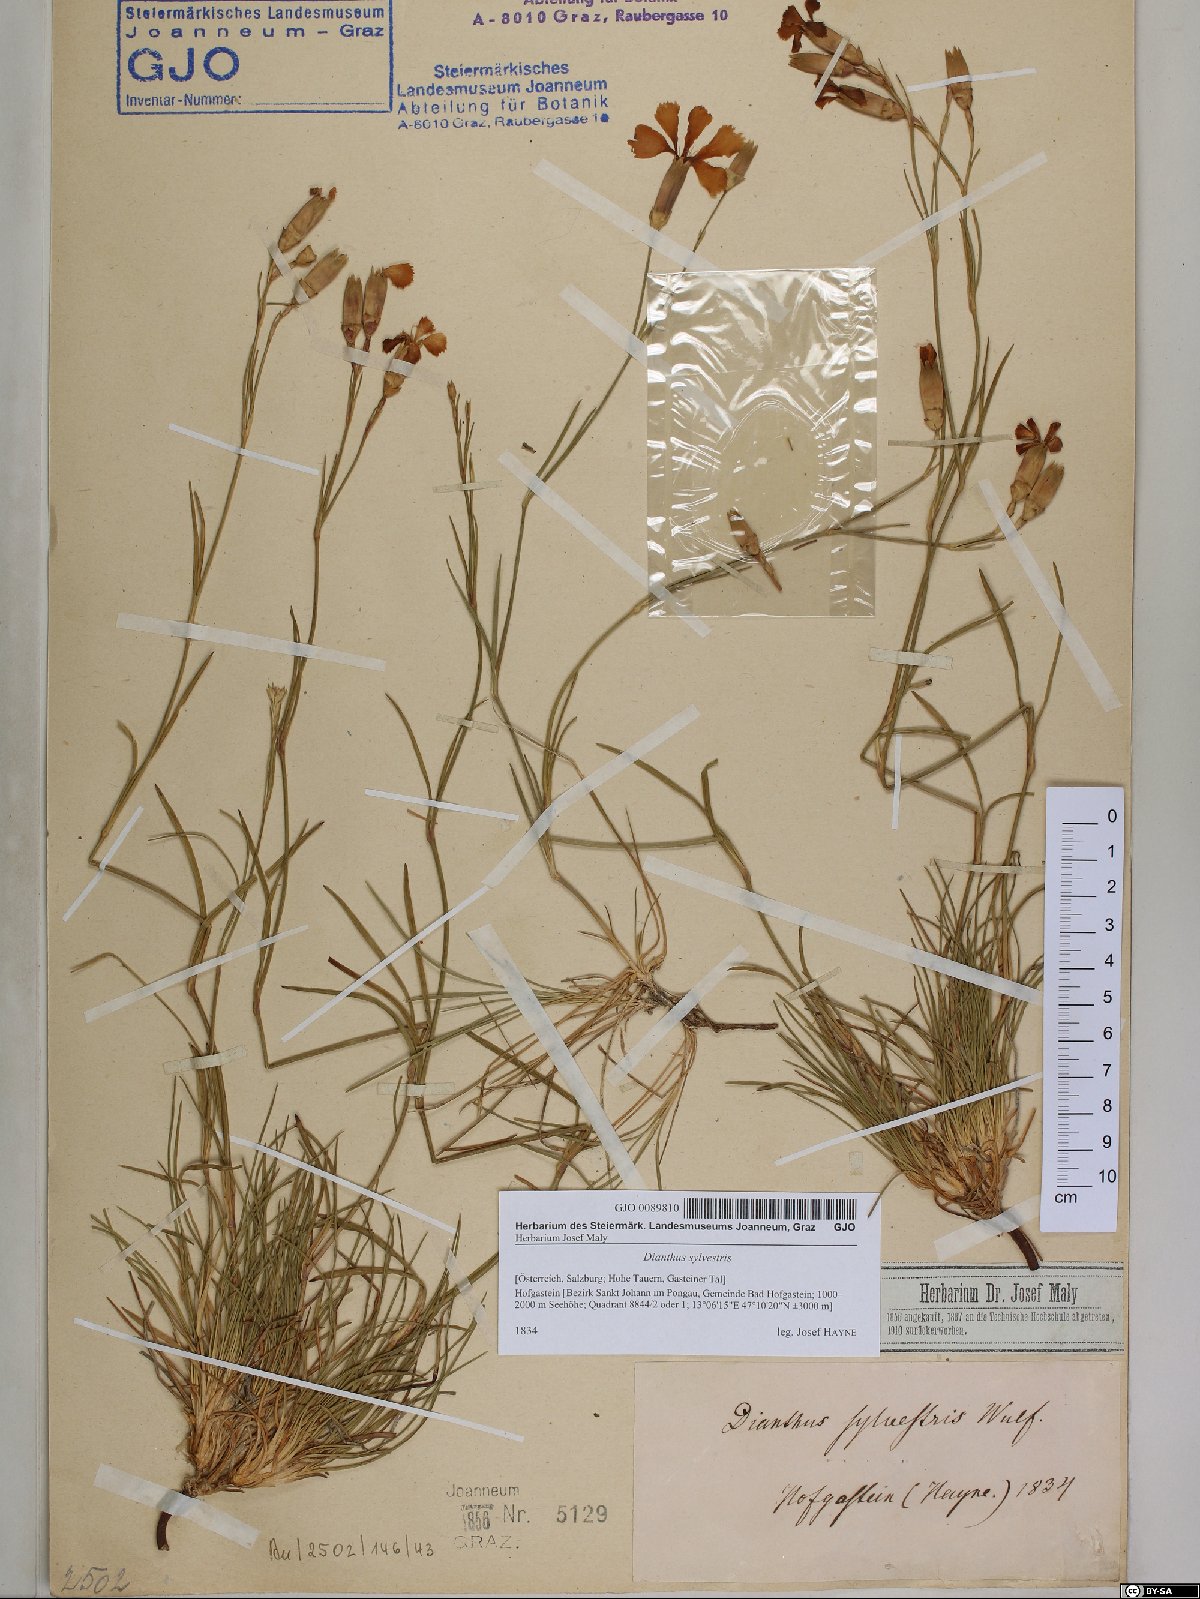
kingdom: Plantae
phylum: Tracheophyta
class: Magnoliopsida
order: Caryophyllales
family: Caryophyllaceae
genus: Dianthus
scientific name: Dianthus sylvestris
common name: Wood pink
